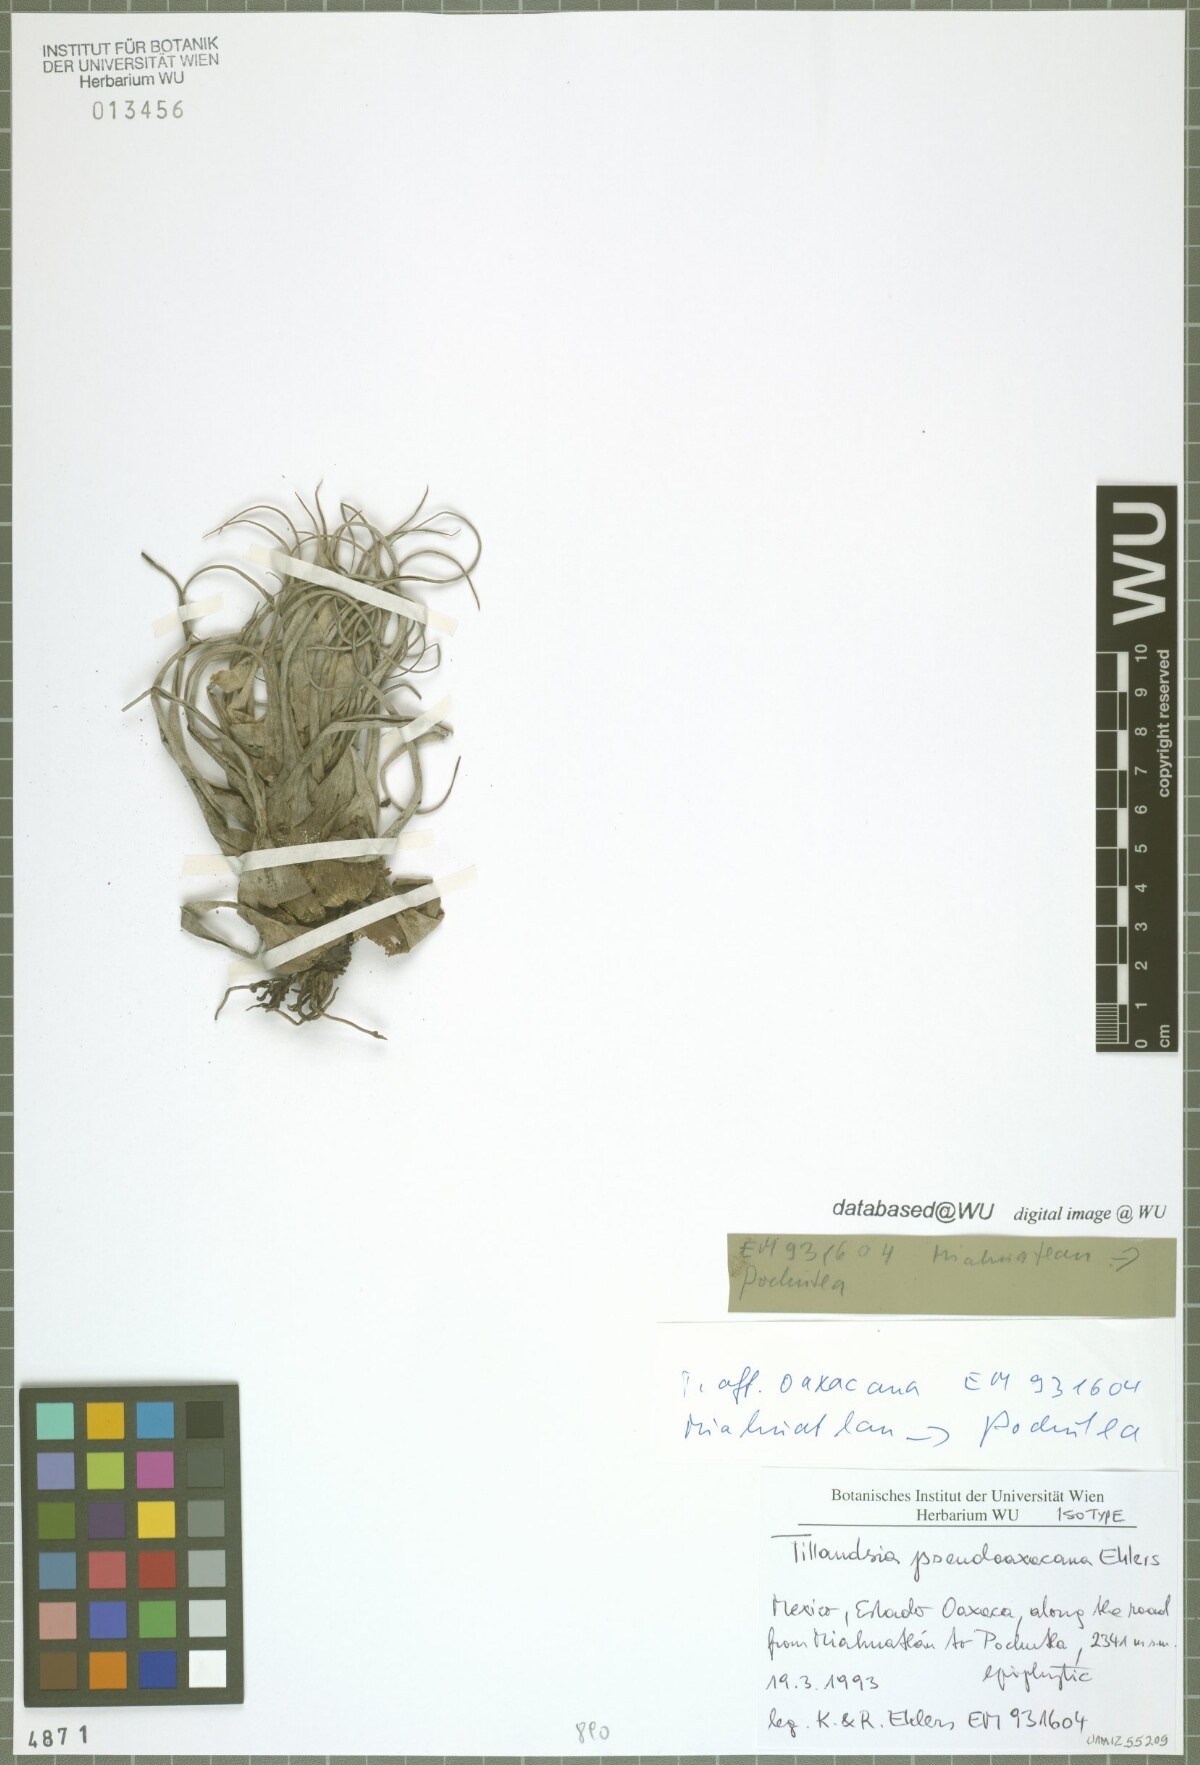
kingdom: Plantae
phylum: Tracheophyta
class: Liliopsida
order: Poales
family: Bromeliaceae
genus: Tillandsia
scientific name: Tillandsia pseudooaxacana
